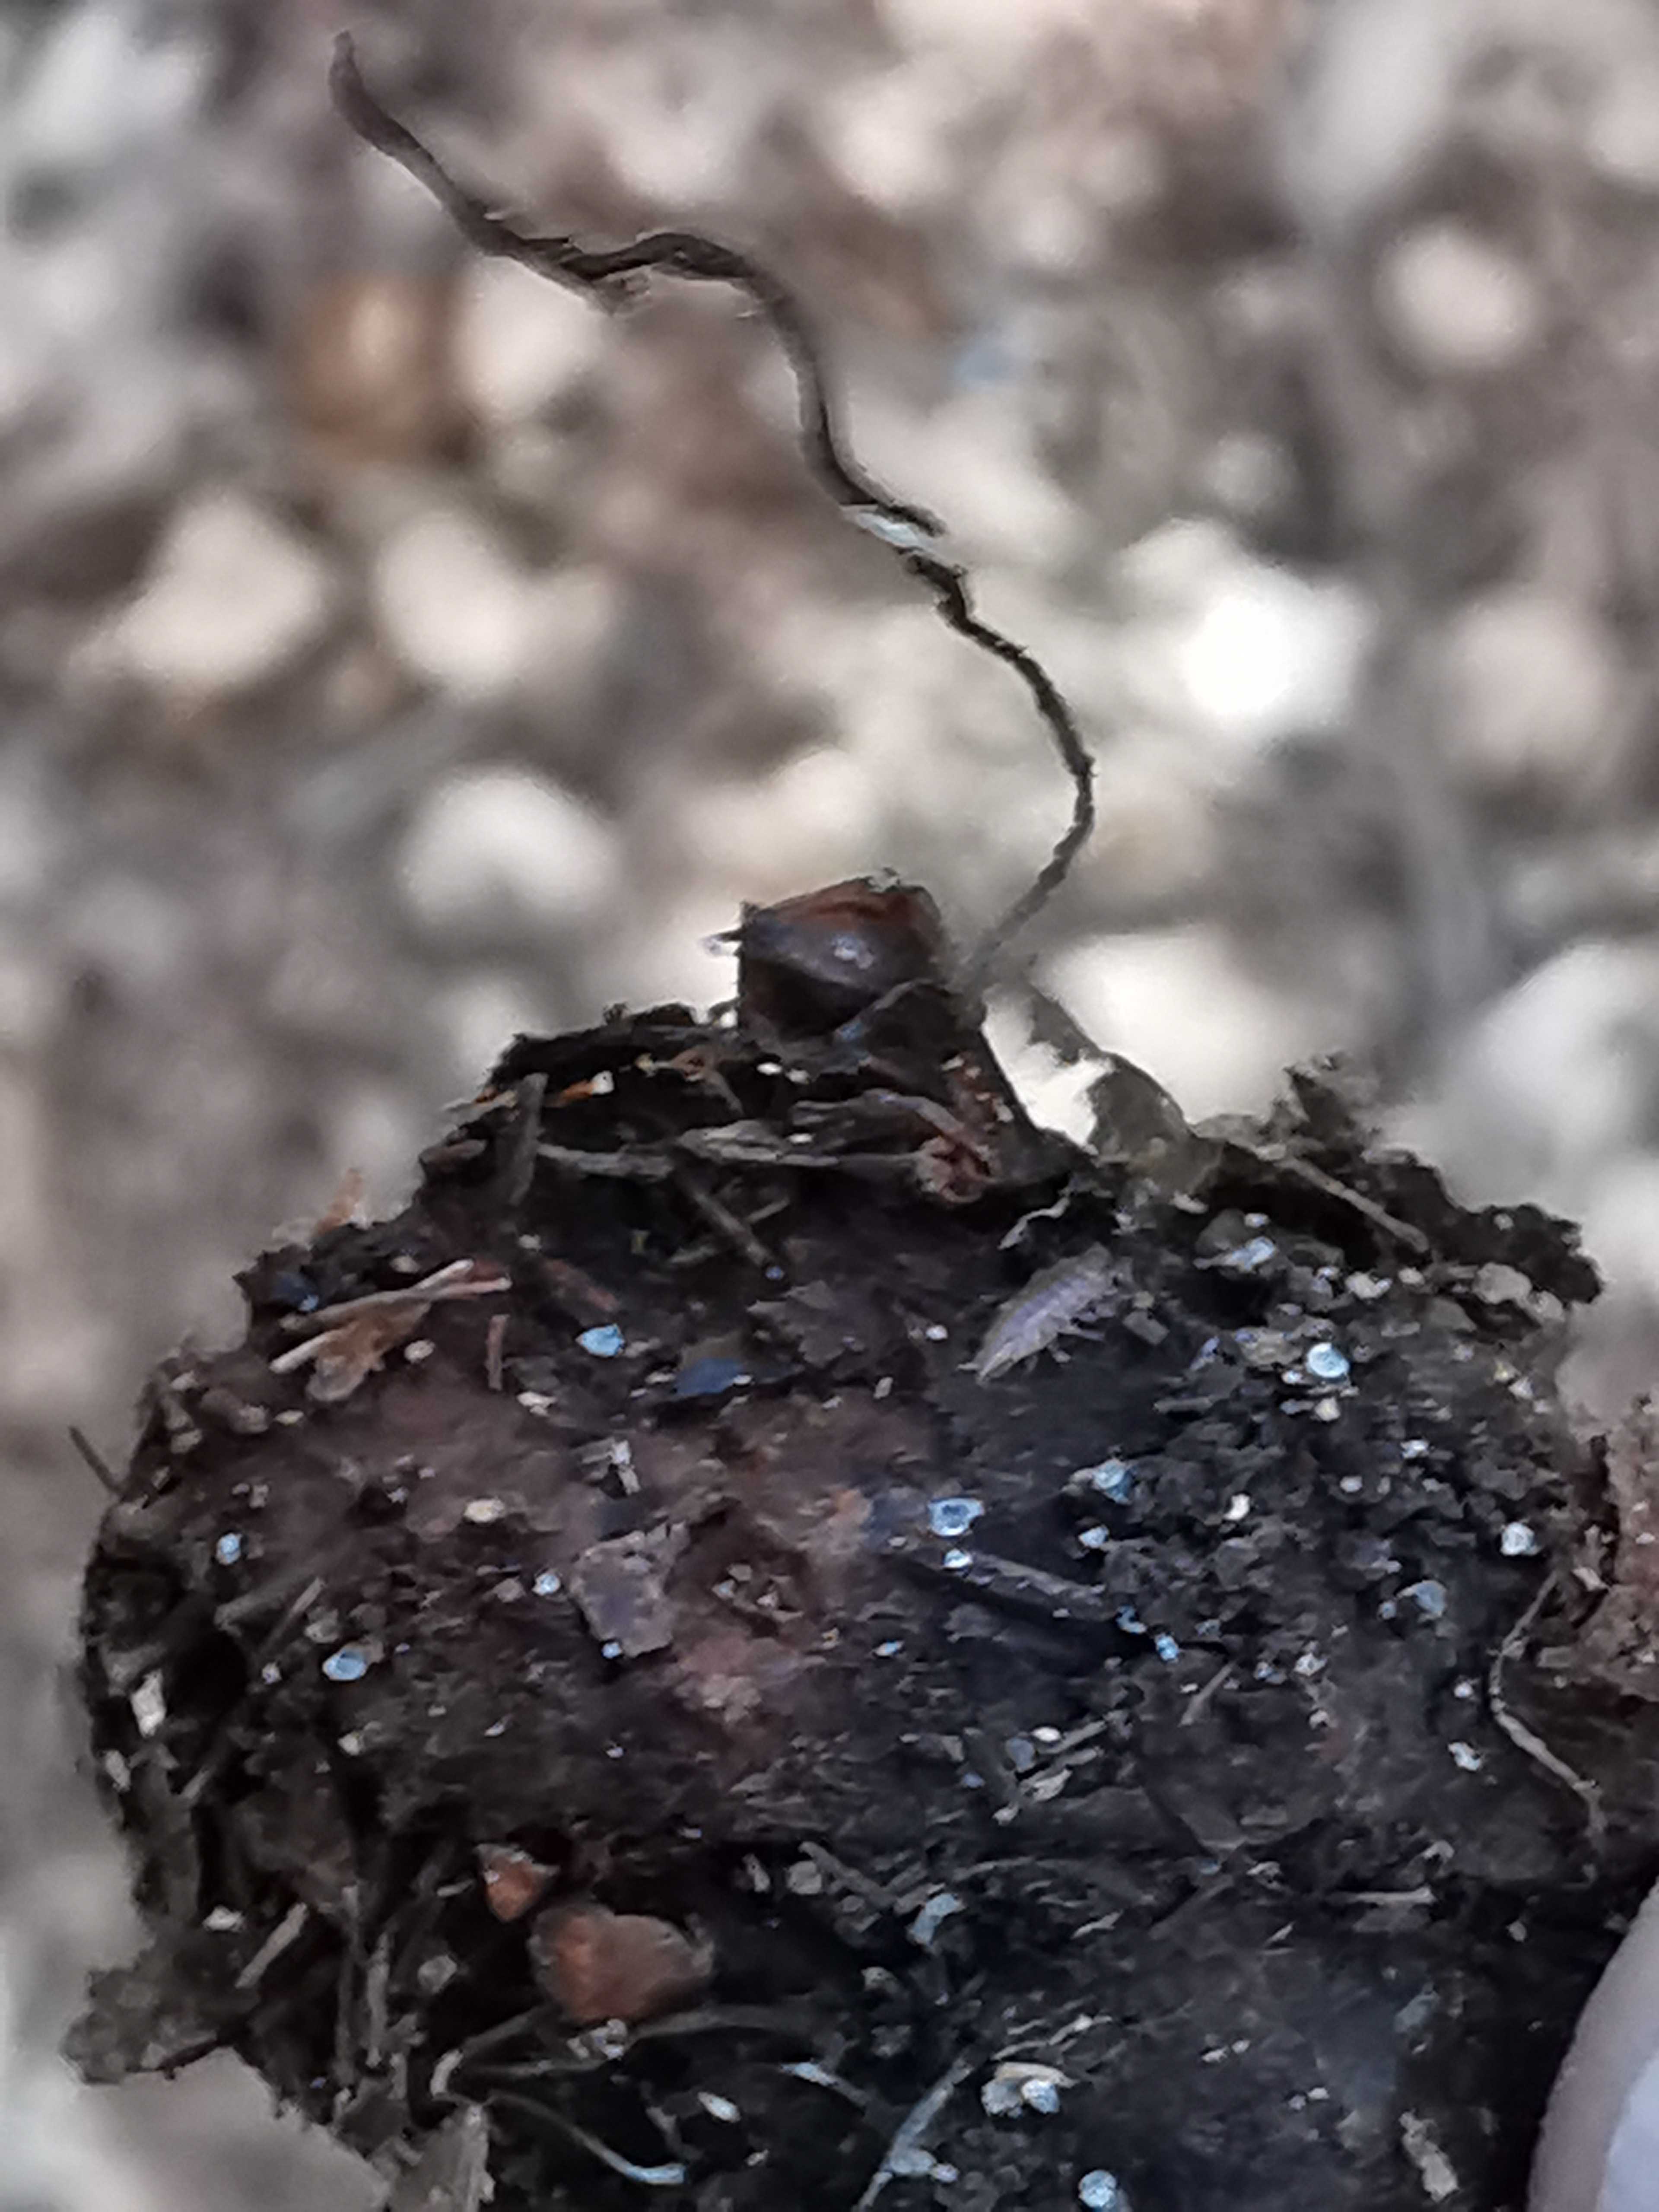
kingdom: Fungi
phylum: Ascomycota
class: Sordariomycetes
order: Xylariales
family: Xylariaceae
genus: Xylaria
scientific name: Xylaria carpophila
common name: bogskål-stødsvamp
